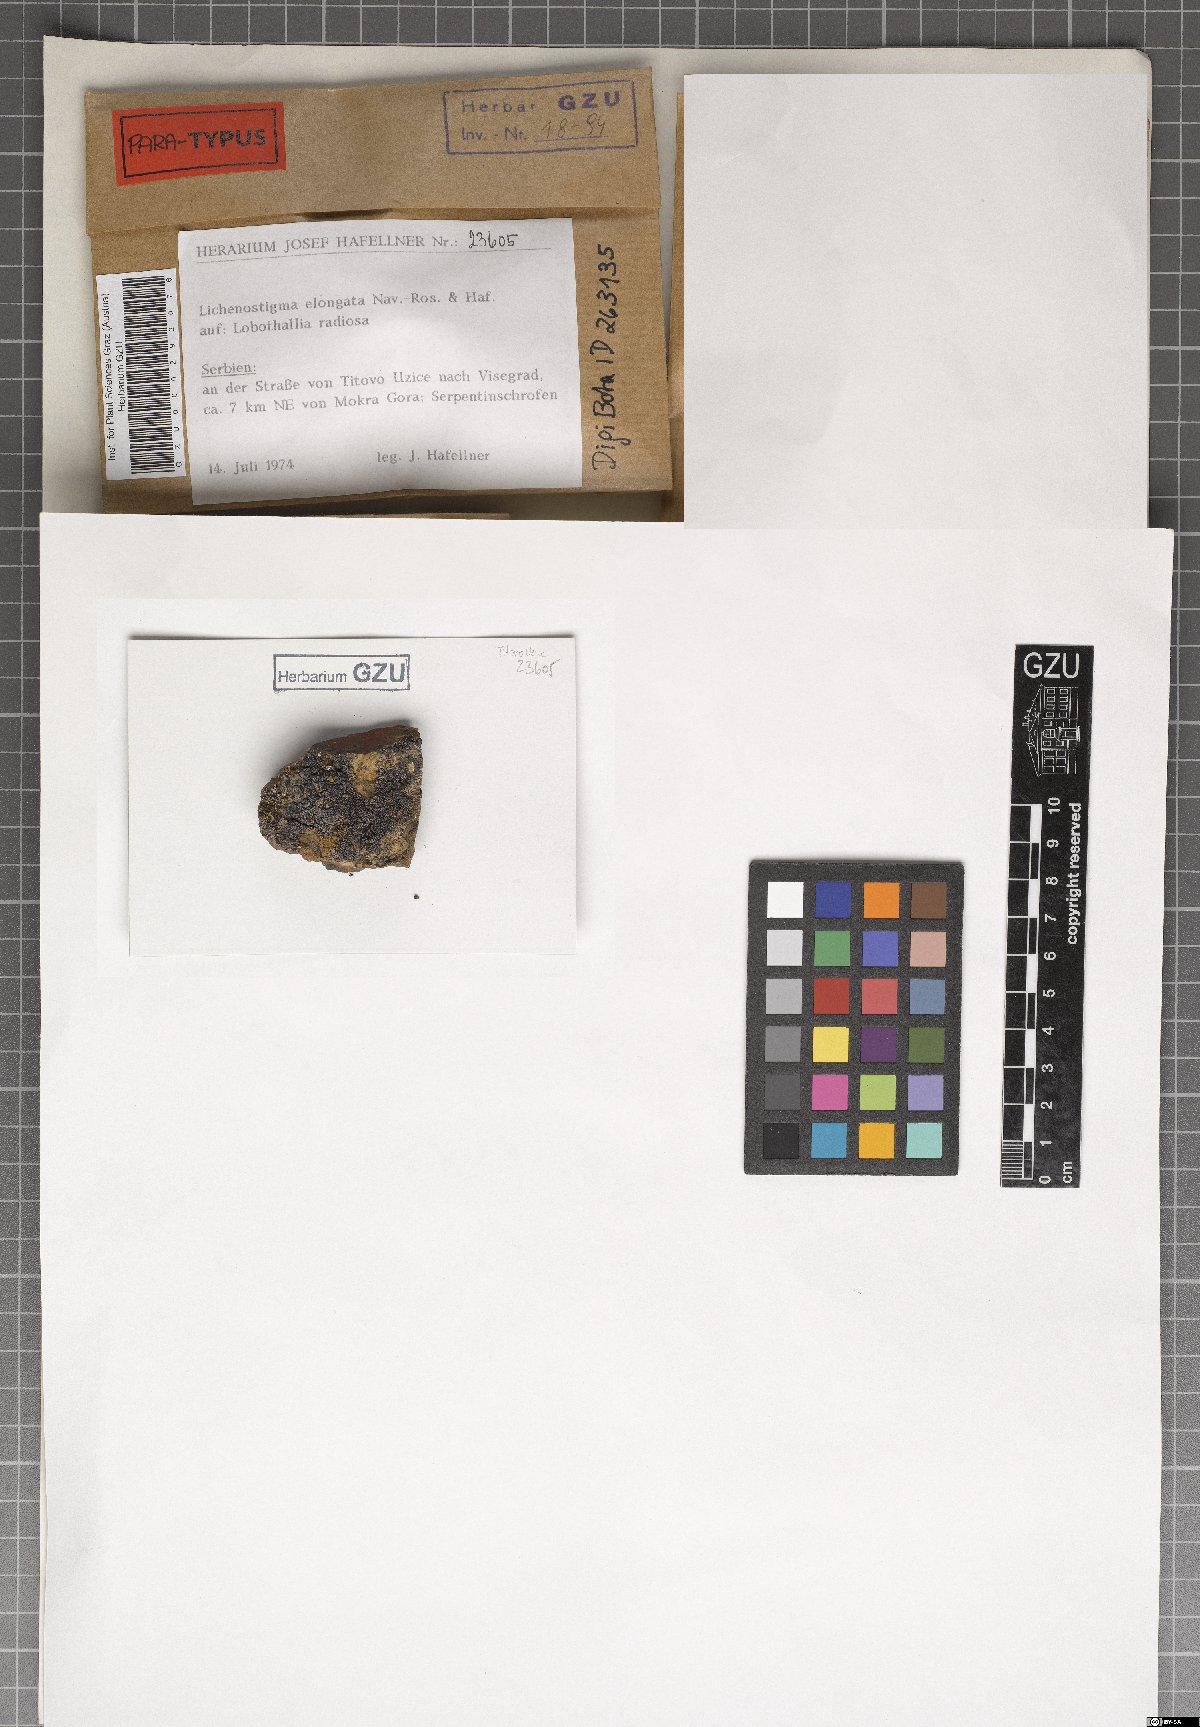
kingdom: Fungi
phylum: Ascomycota
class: Arthoniomycetes
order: Lichenostigmatales
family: Phaeococcomycetaceae
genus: Lichenostigma
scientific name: Lichenostigma elongatum
